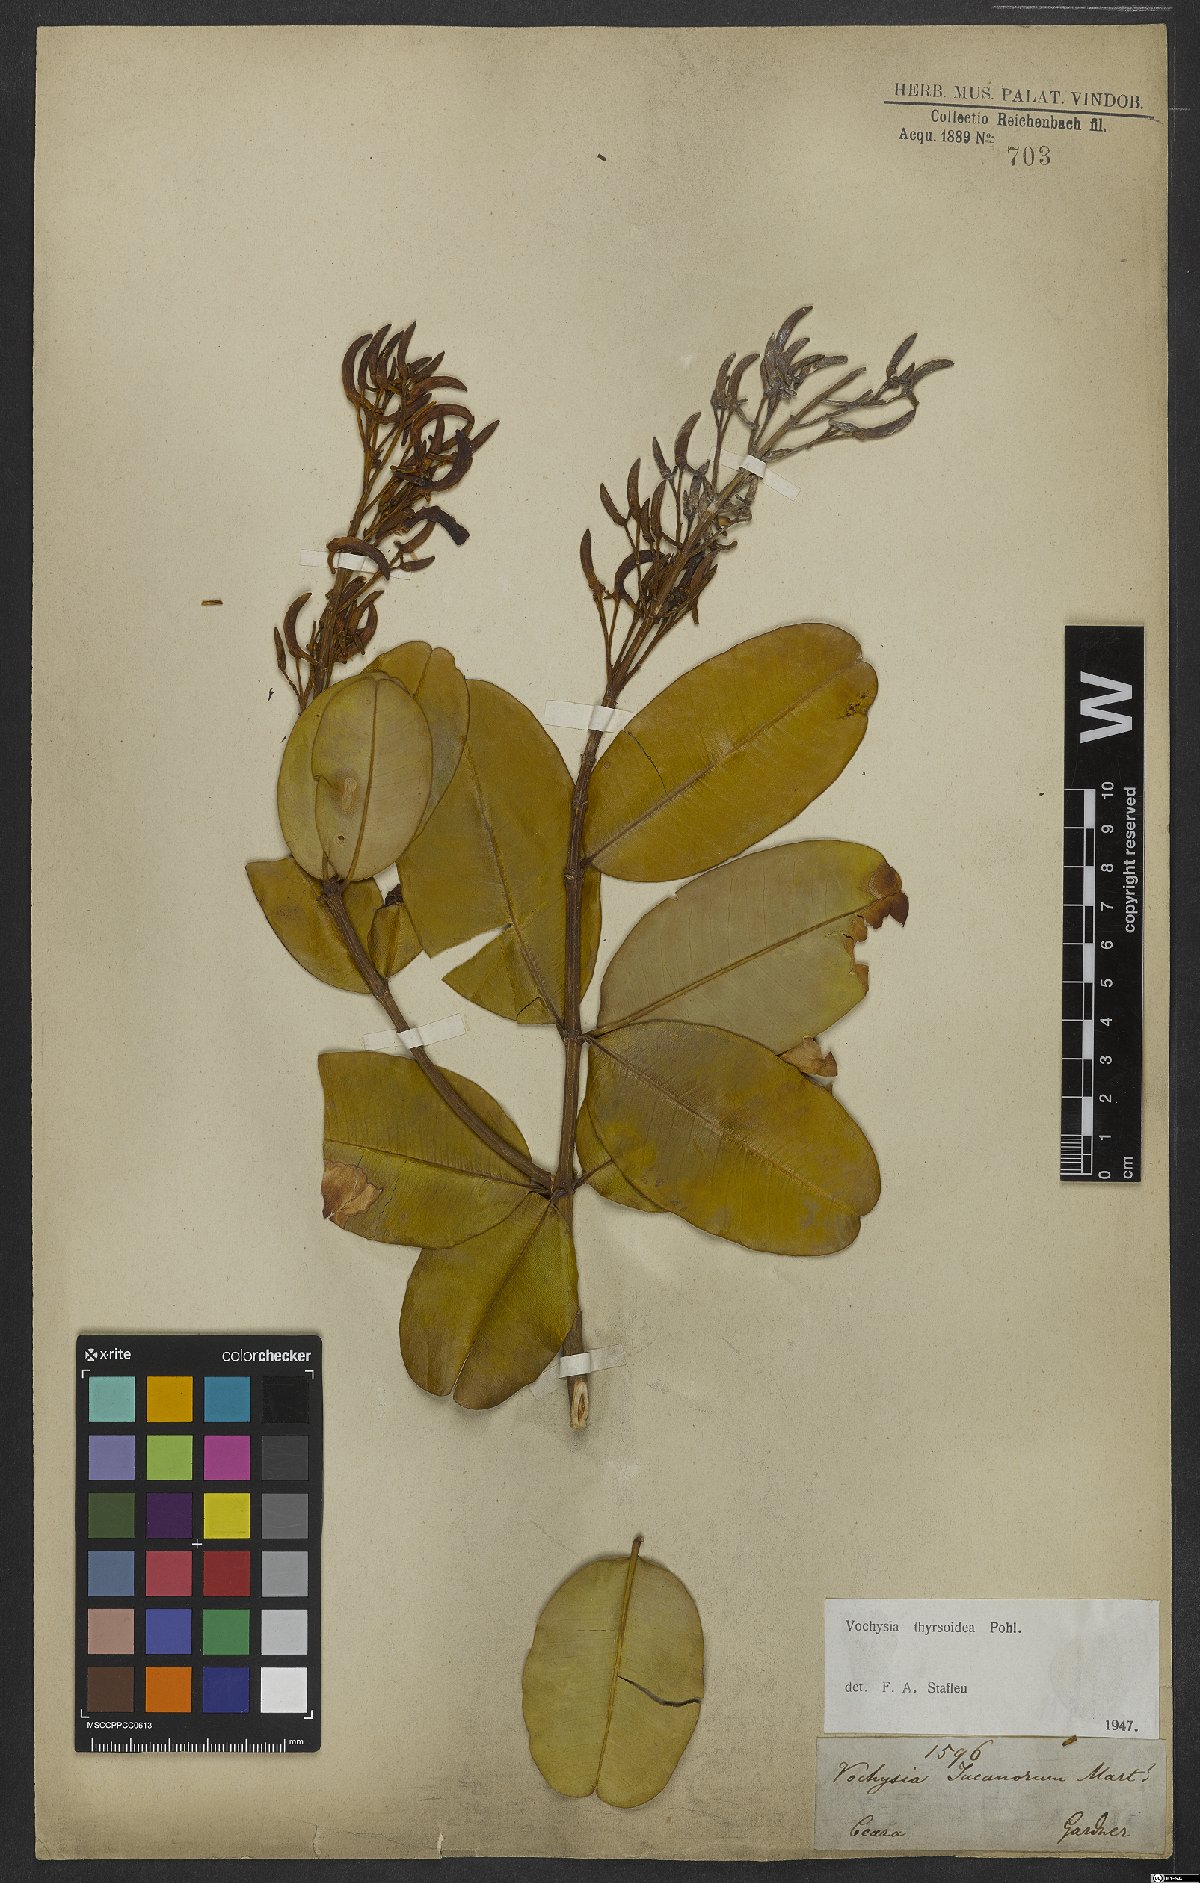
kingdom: Plantae
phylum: Tracheophyta
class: Magnoliopsida
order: Myrtales
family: Vochysiaceae
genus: Vochysia
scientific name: Vochysia thyrsoidea
